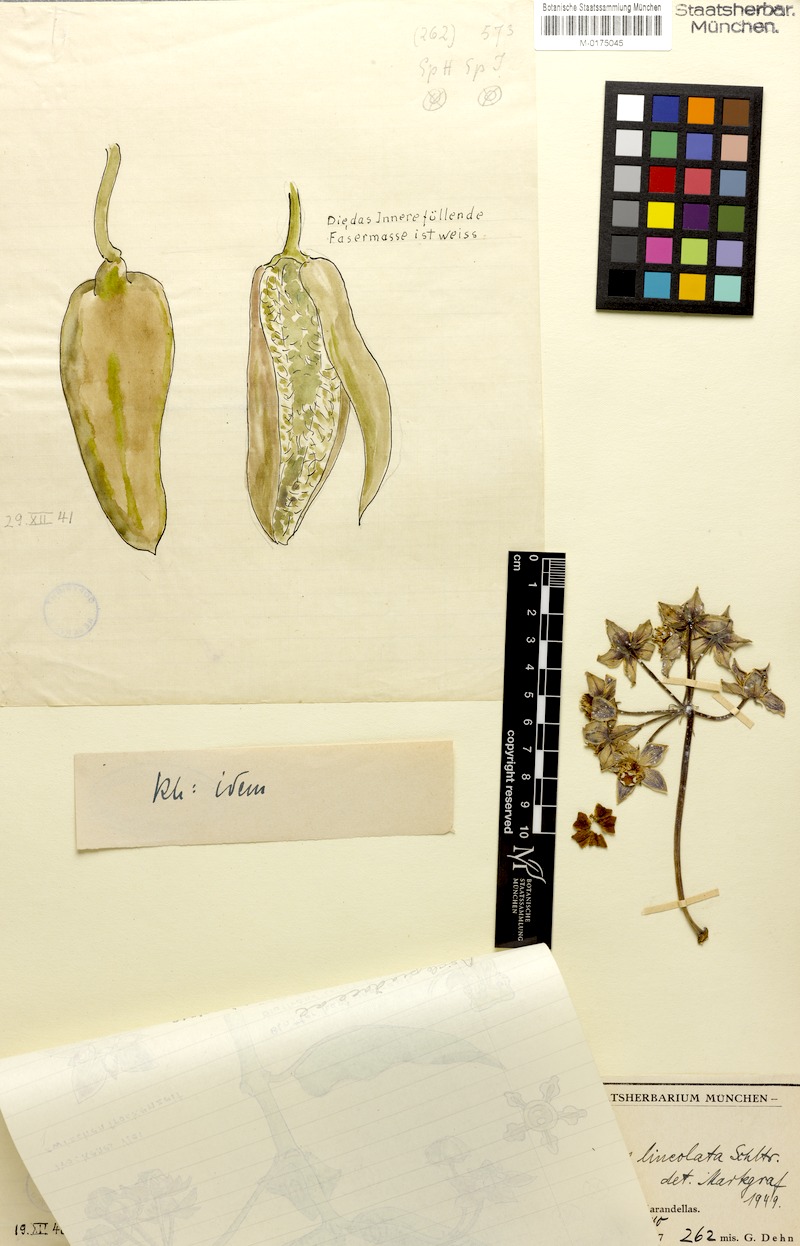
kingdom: Plantae
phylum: Tracheophyta
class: Magnoliopsida
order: Gentianales
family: Apocynaceae
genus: Pachycarpus
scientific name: Pachycarpus lineolatus
